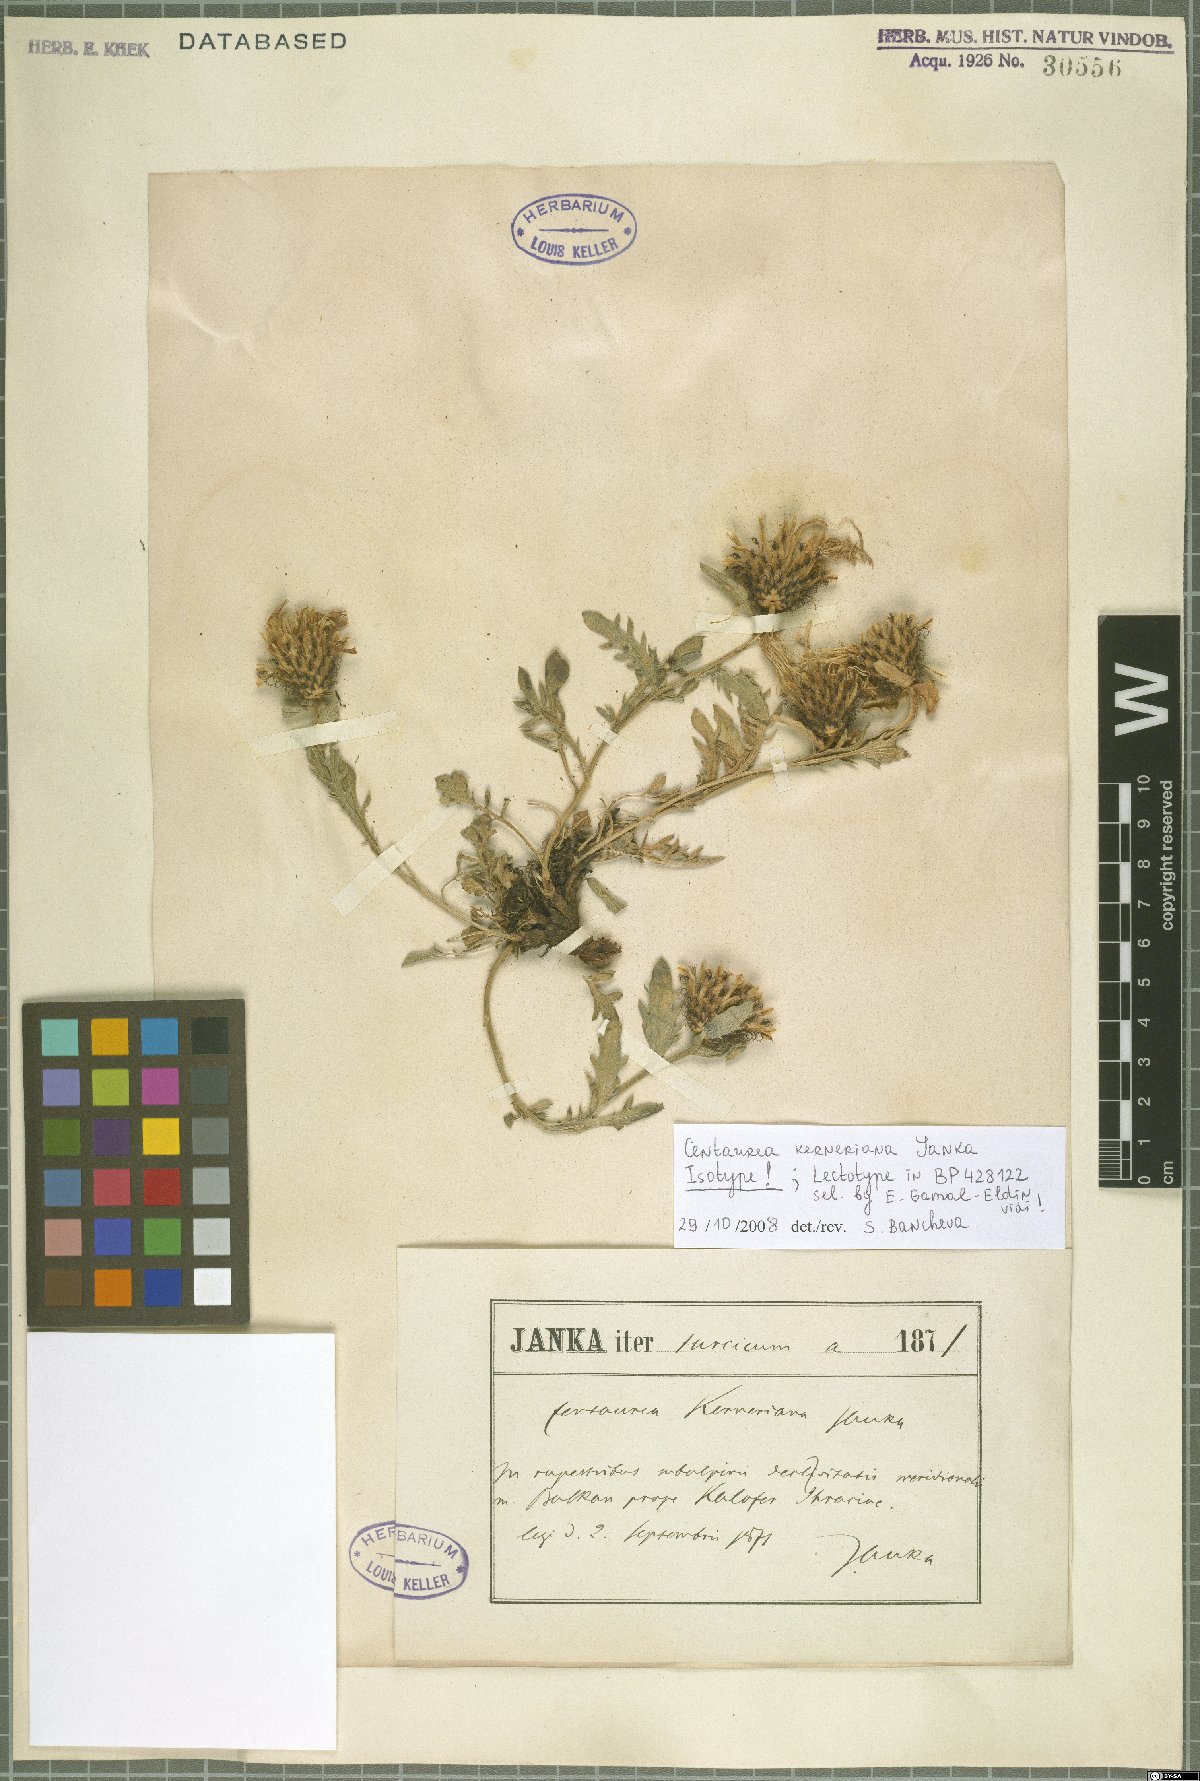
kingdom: Plantae
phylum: Tracheophyta
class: Magnoliopsida
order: Asterales
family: Asteraceae
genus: Centaurea
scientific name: Centaurea kerneriana
